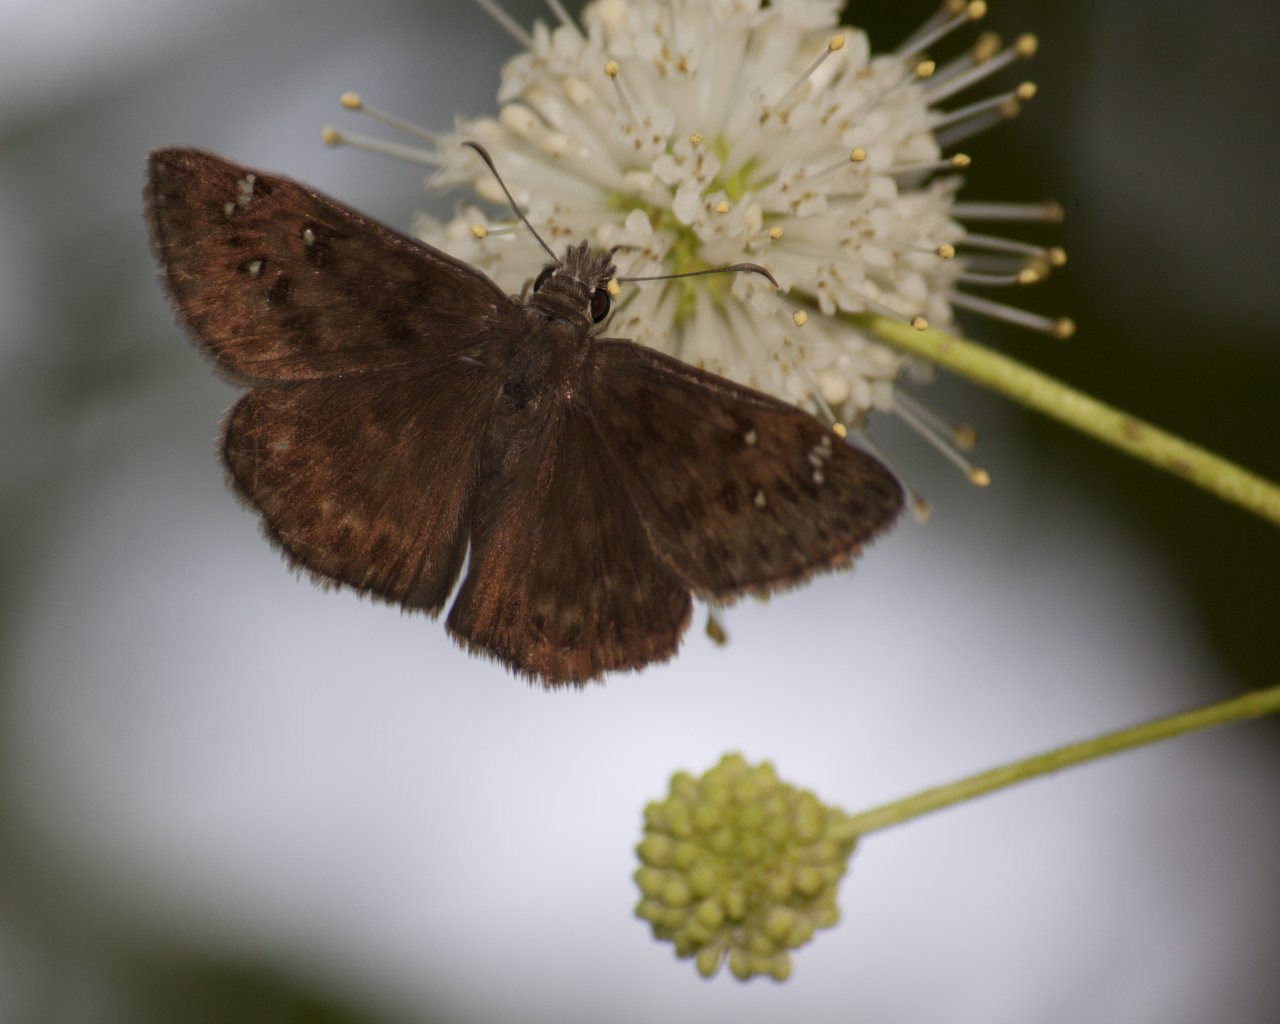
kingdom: Animalia
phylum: Arthropoda
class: Insecta
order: Lepidoptera
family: Hesperiidae
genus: Gesta
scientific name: Gesta
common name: Horace's Duskywing
